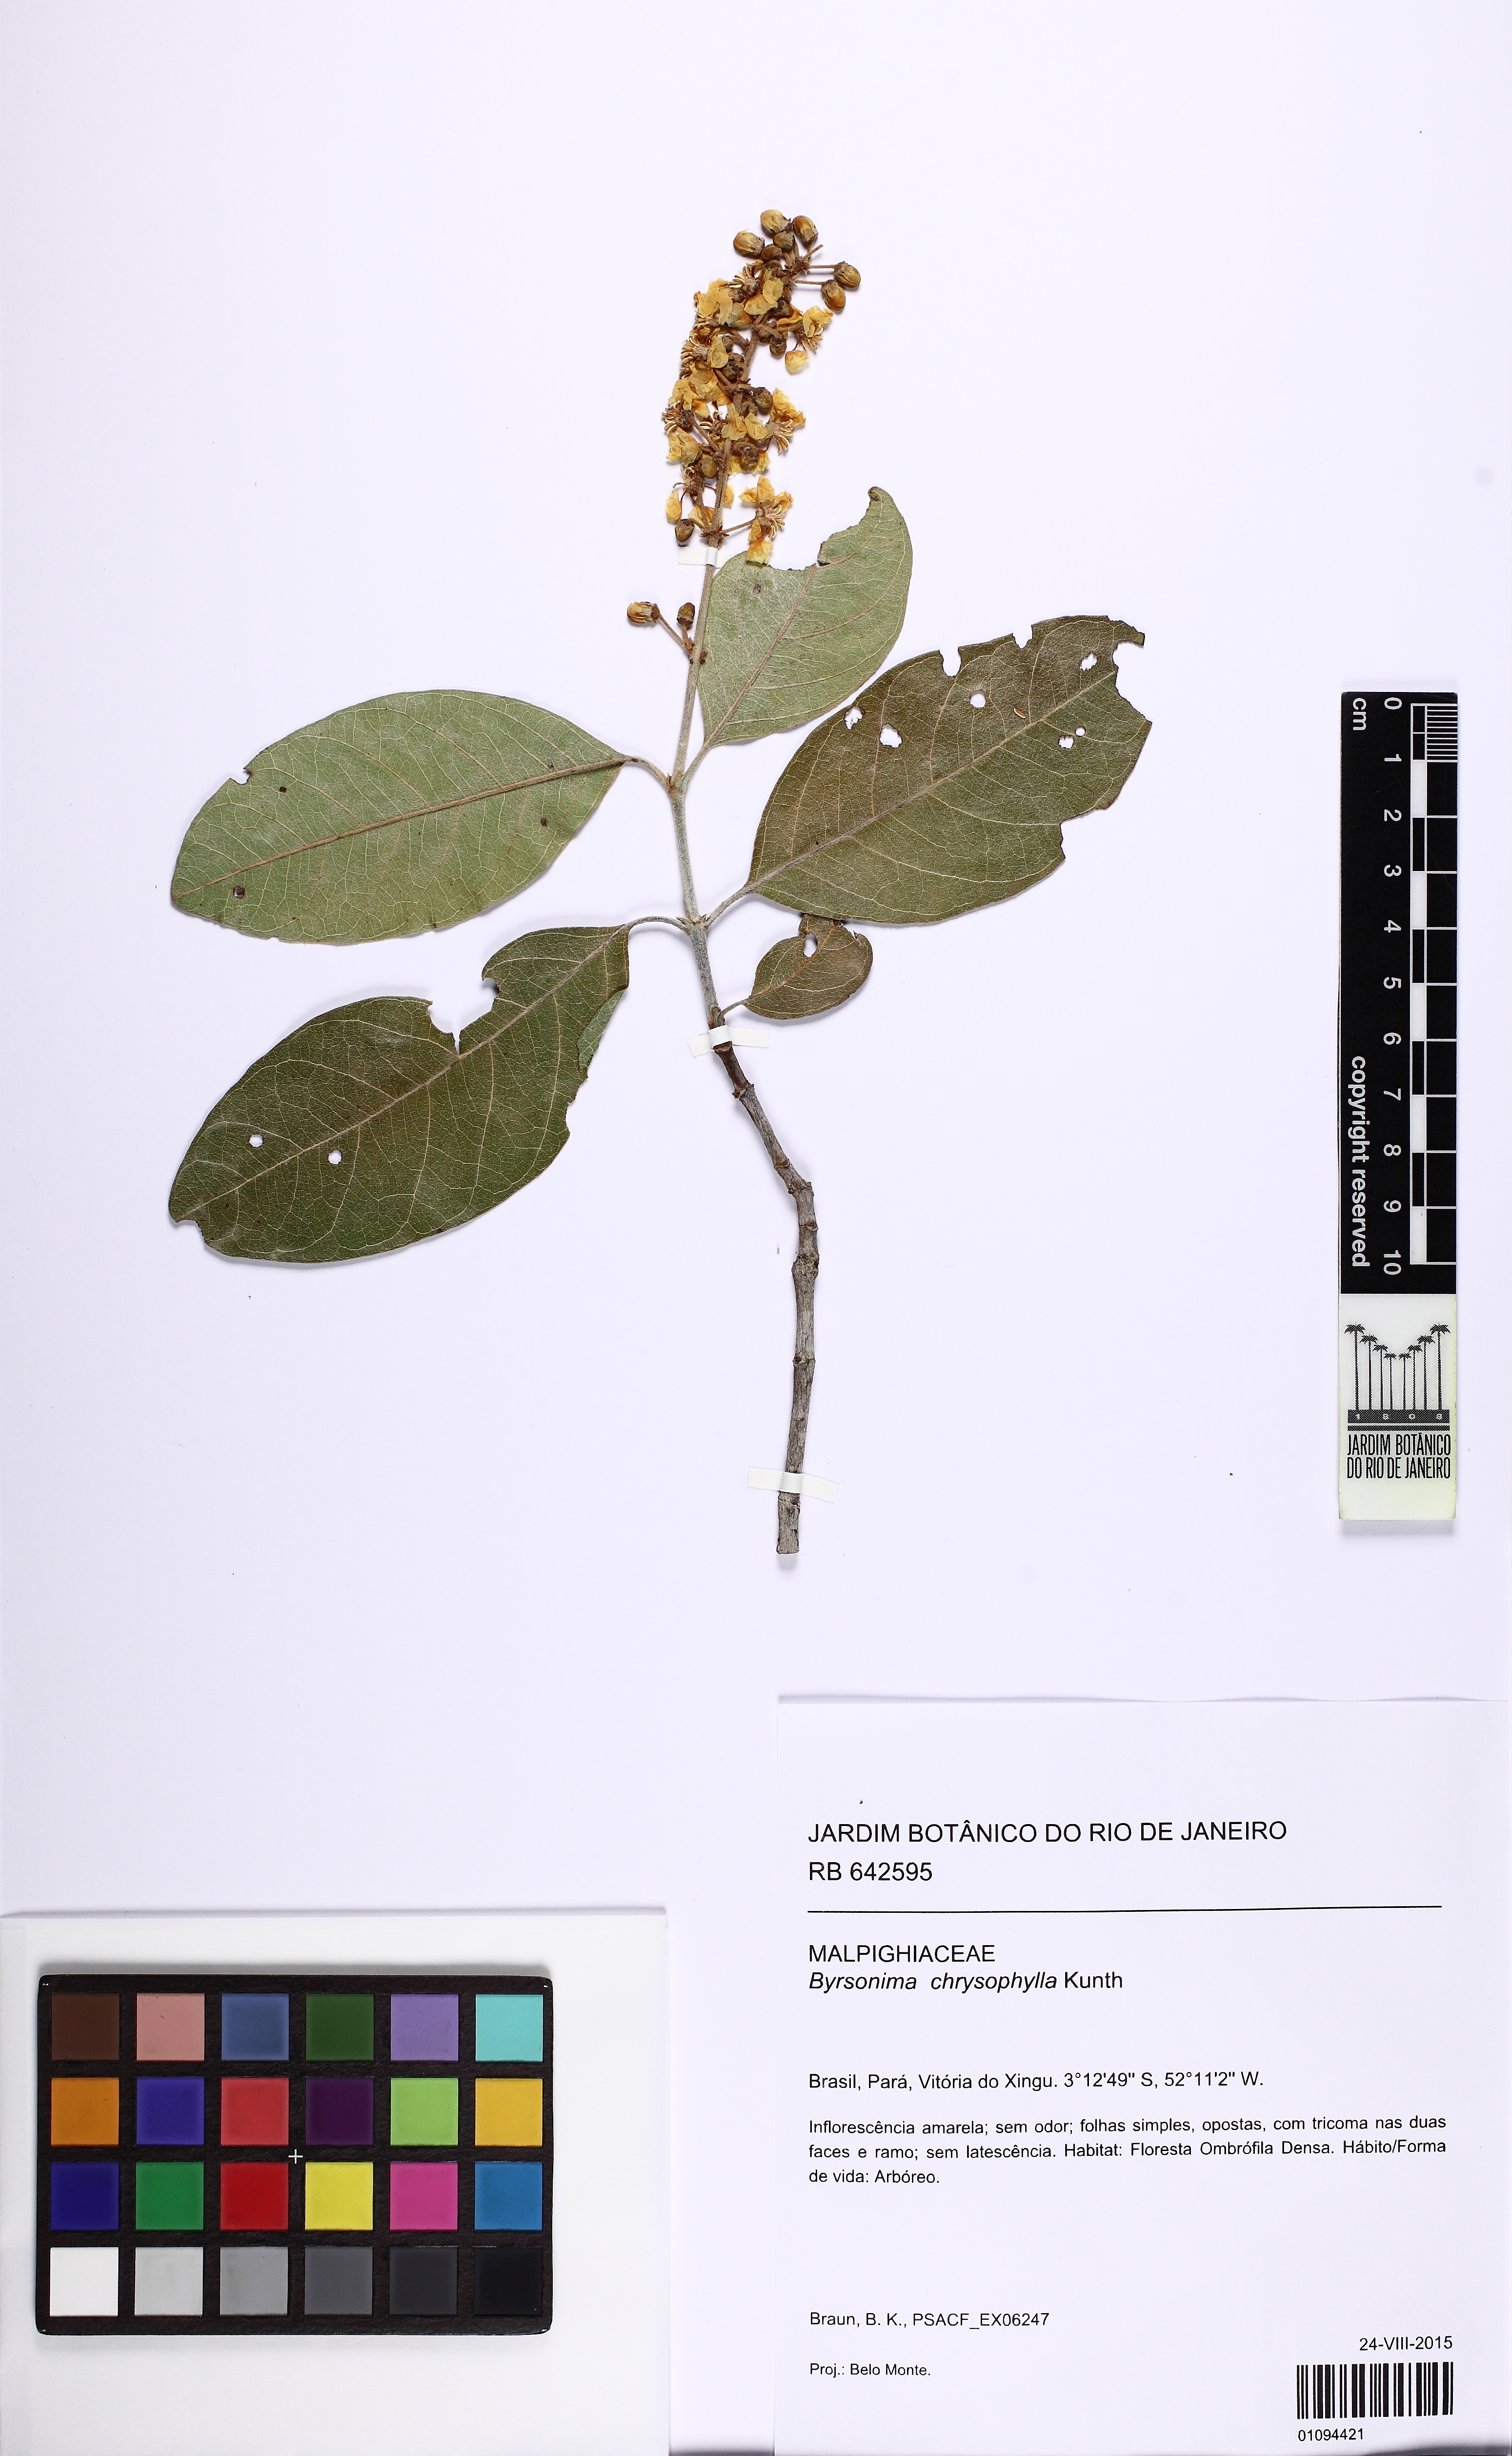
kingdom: Plantae
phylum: Tracheophyta
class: Magnoliopsida
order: Malpighiales
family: Malpighiaceae
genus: Byrsonima
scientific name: Byrsonima chrysophylla
